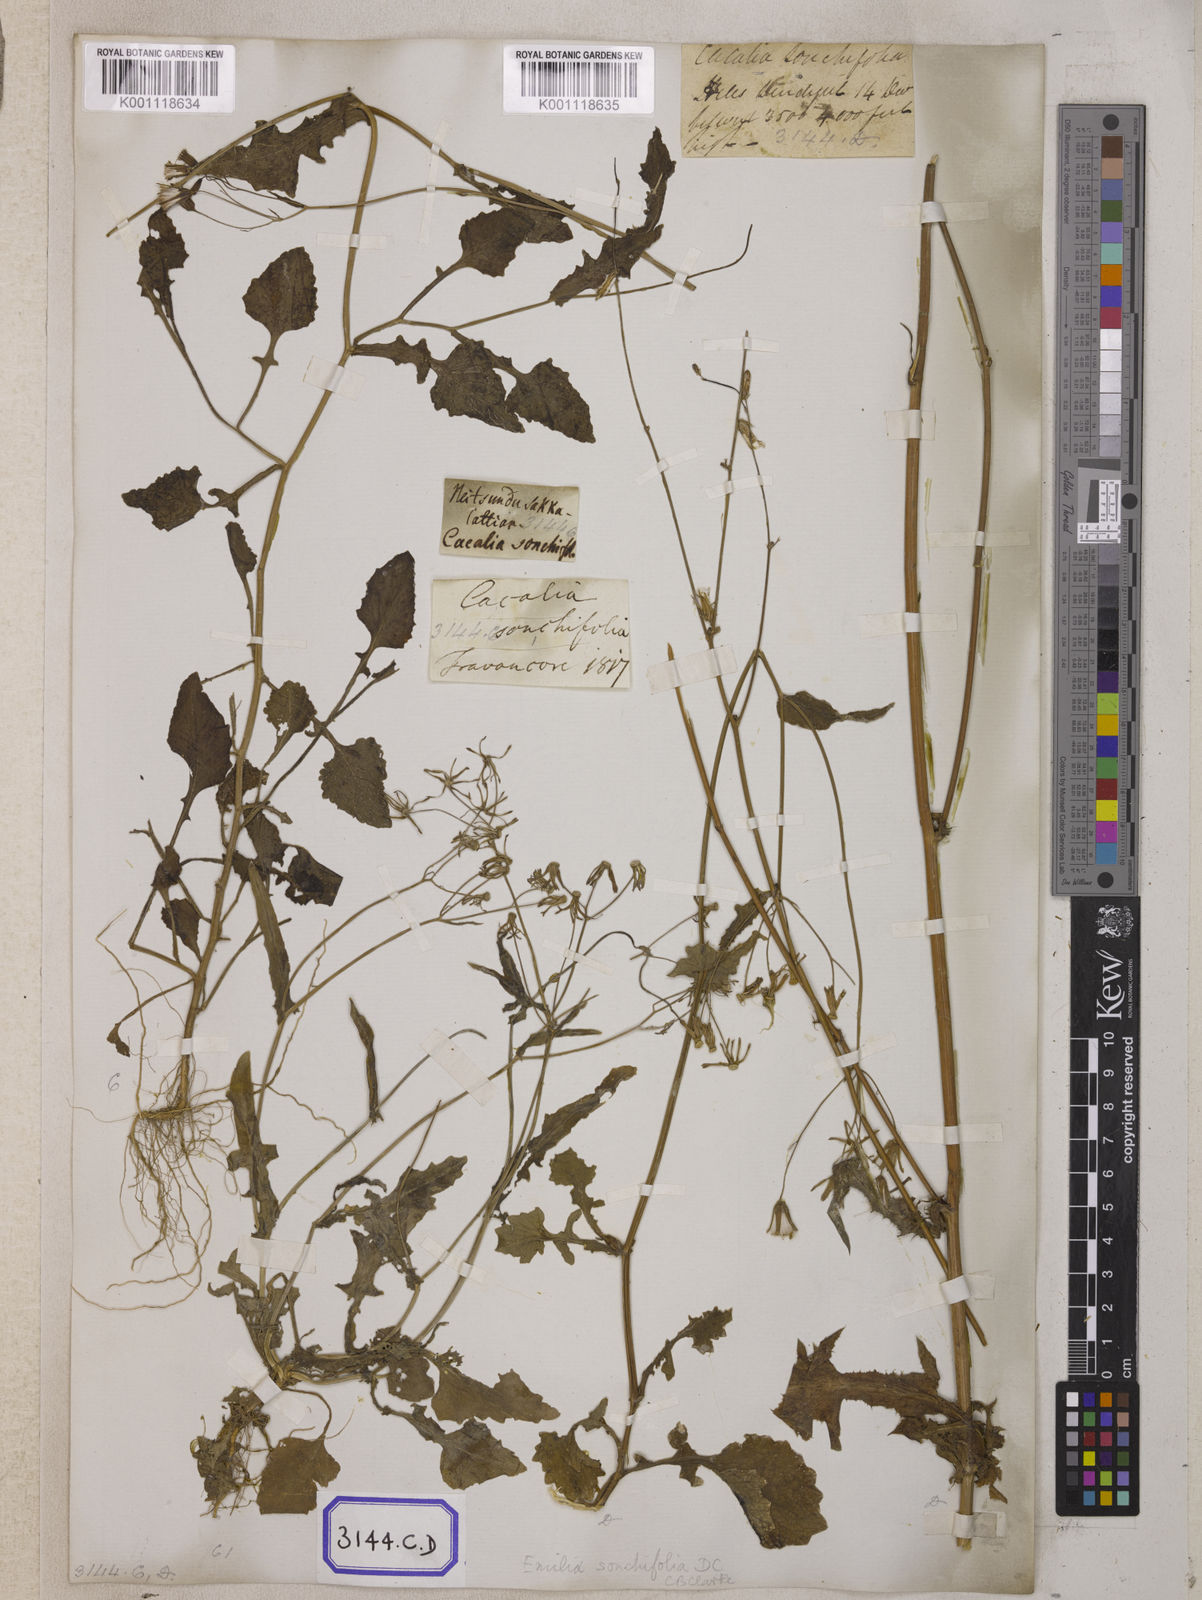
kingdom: Plantae
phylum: Tracheophyta
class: Magnoliopsida
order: Asterales
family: Asteraceae
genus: Launaea
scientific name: Launaea remotiflora
